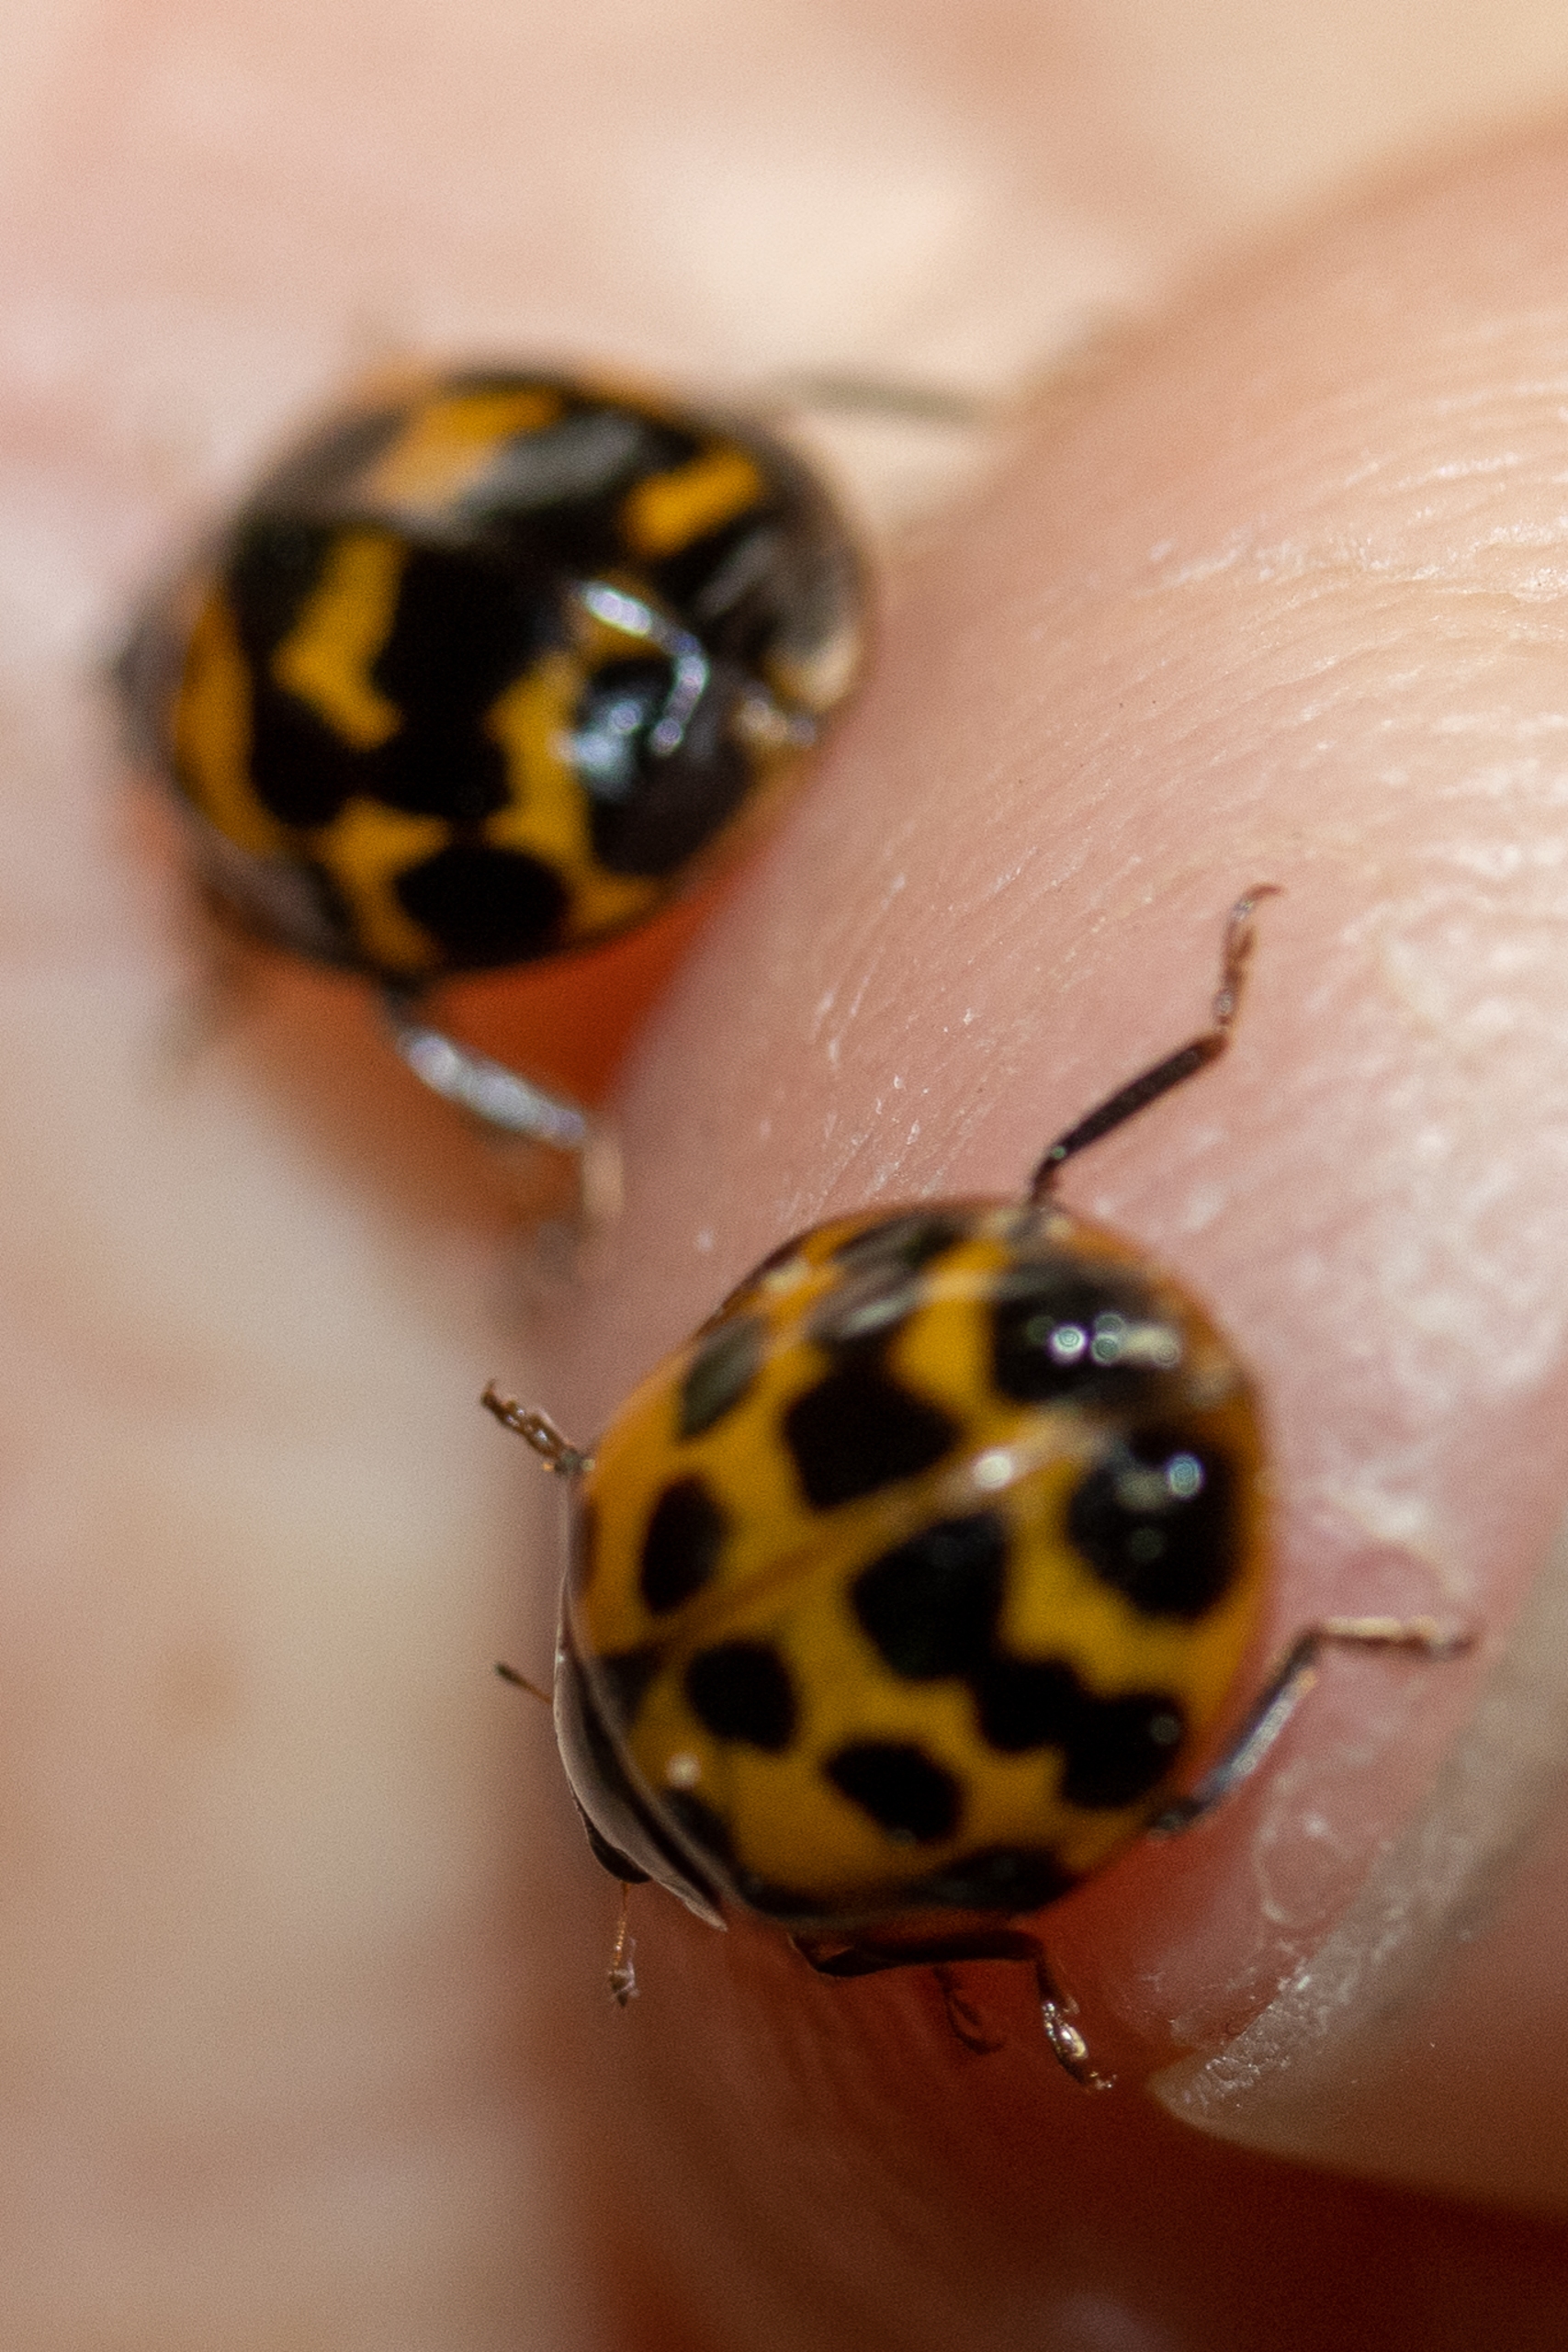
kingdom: Animalia
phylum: Arthropoda
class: Insecta
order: Coleoptera
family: Coccinellidae
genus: Harmonia
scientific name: Harmonia axyridis
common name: Harlekinmariehøne
